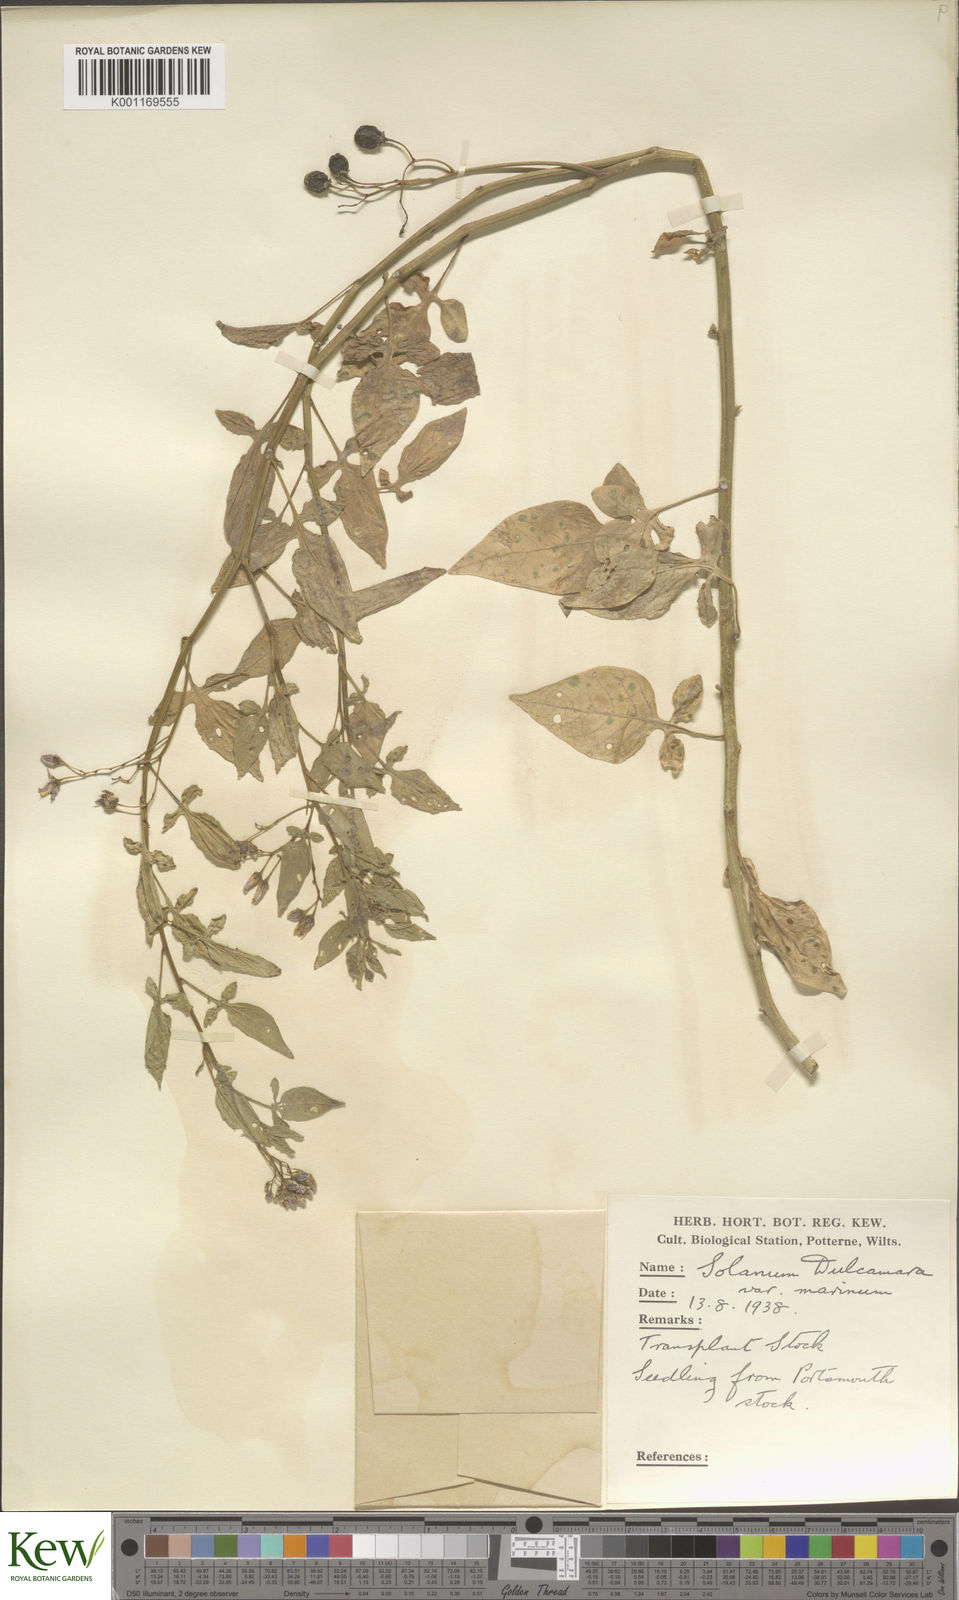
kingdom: Plantae
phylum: Tracheophyta
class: Magnoliopsida
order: Solanales
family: Solanaceae
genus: Solanum
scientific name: Solanum dulcamara
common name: Climbing nightshade
